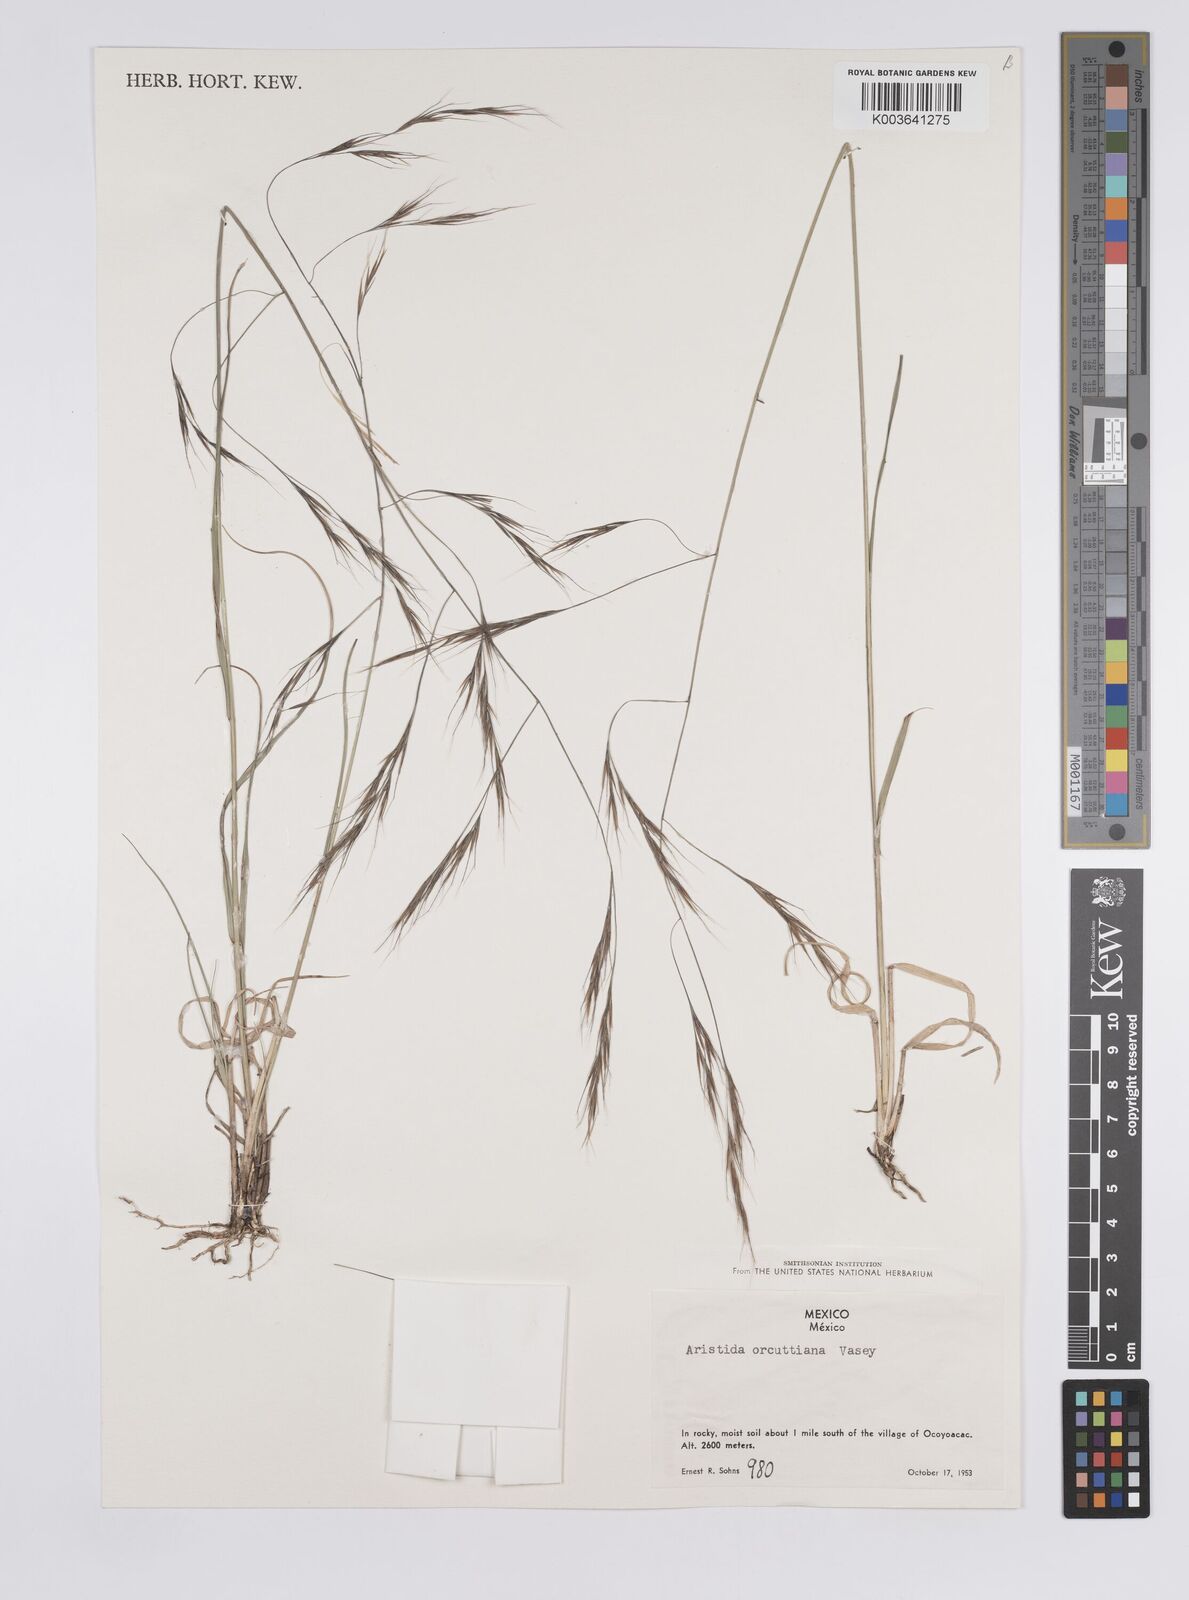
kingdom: Plantae
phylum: Tracheophyta
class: Liliopsida
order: Poales
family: Poaceae
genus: Aristida
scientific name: Aristida schiedeana
